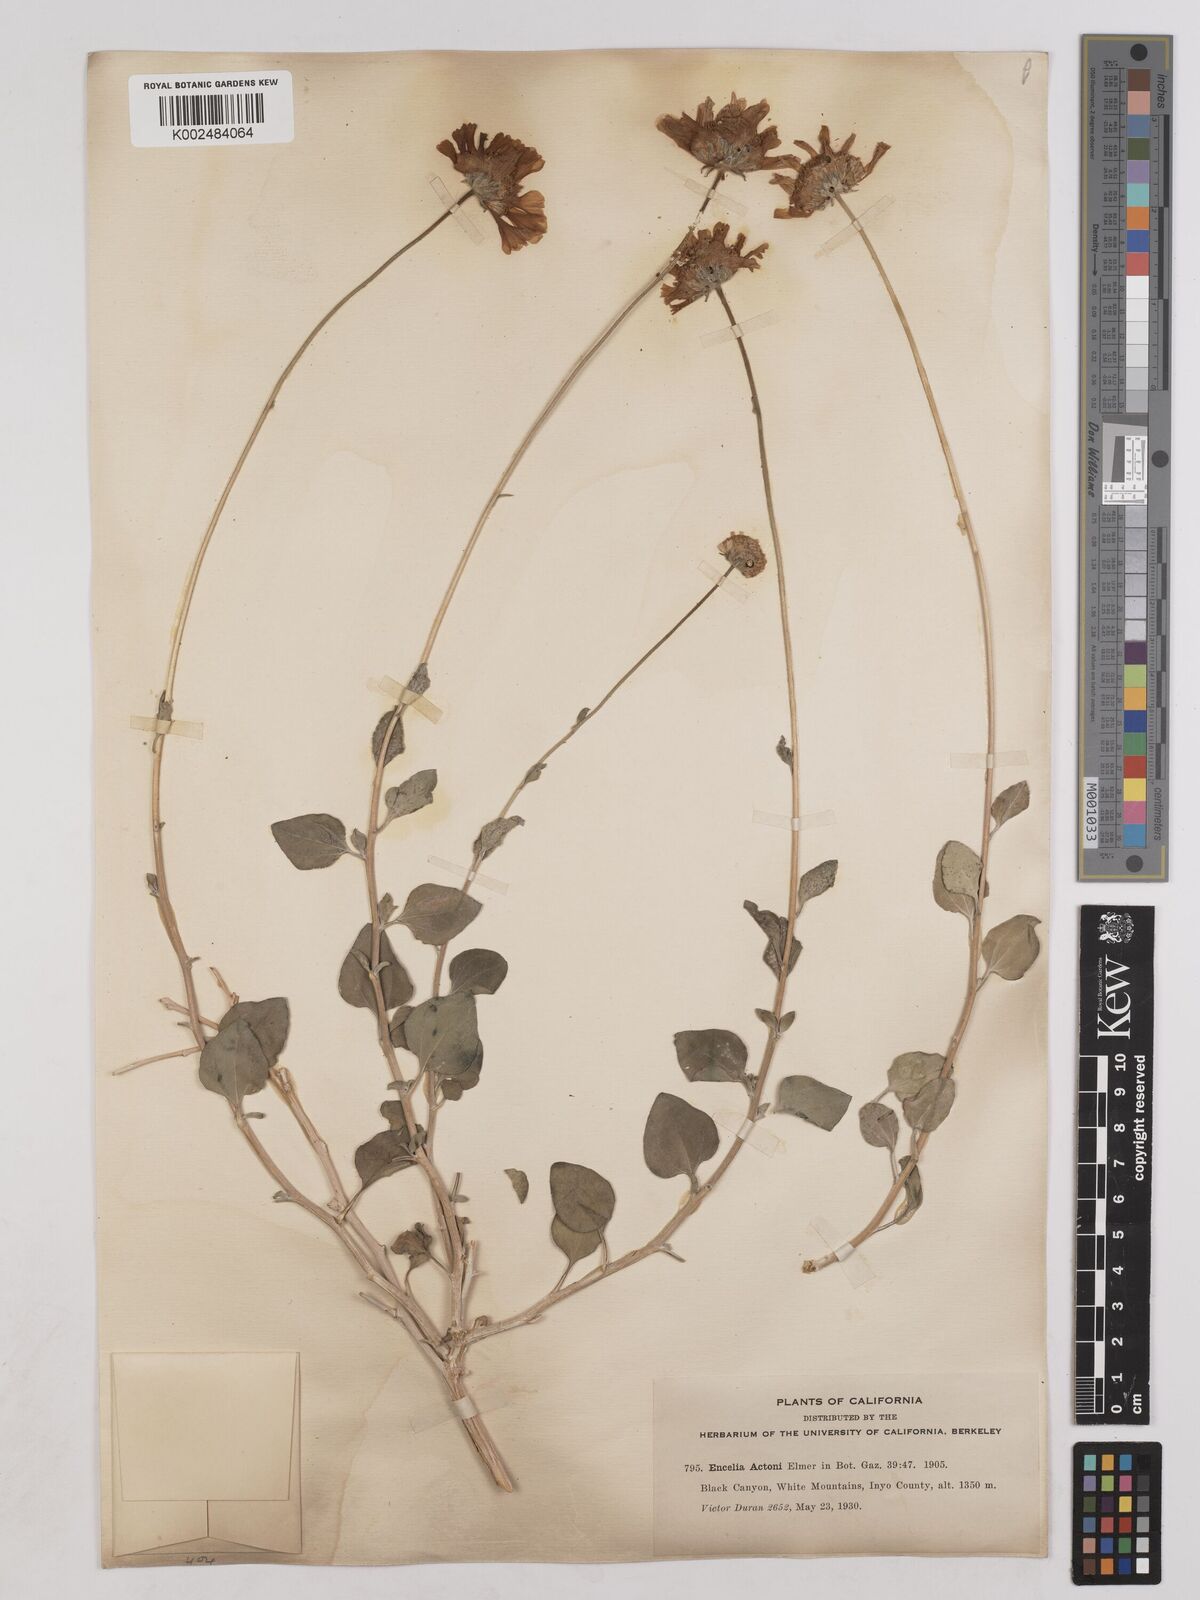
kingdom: Plantae
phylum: Tracheophyta
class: Magnoliopsida
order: Asterales
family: Asteraceae
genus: Encelia
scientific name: Encelia actoni
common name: Acton encelia
